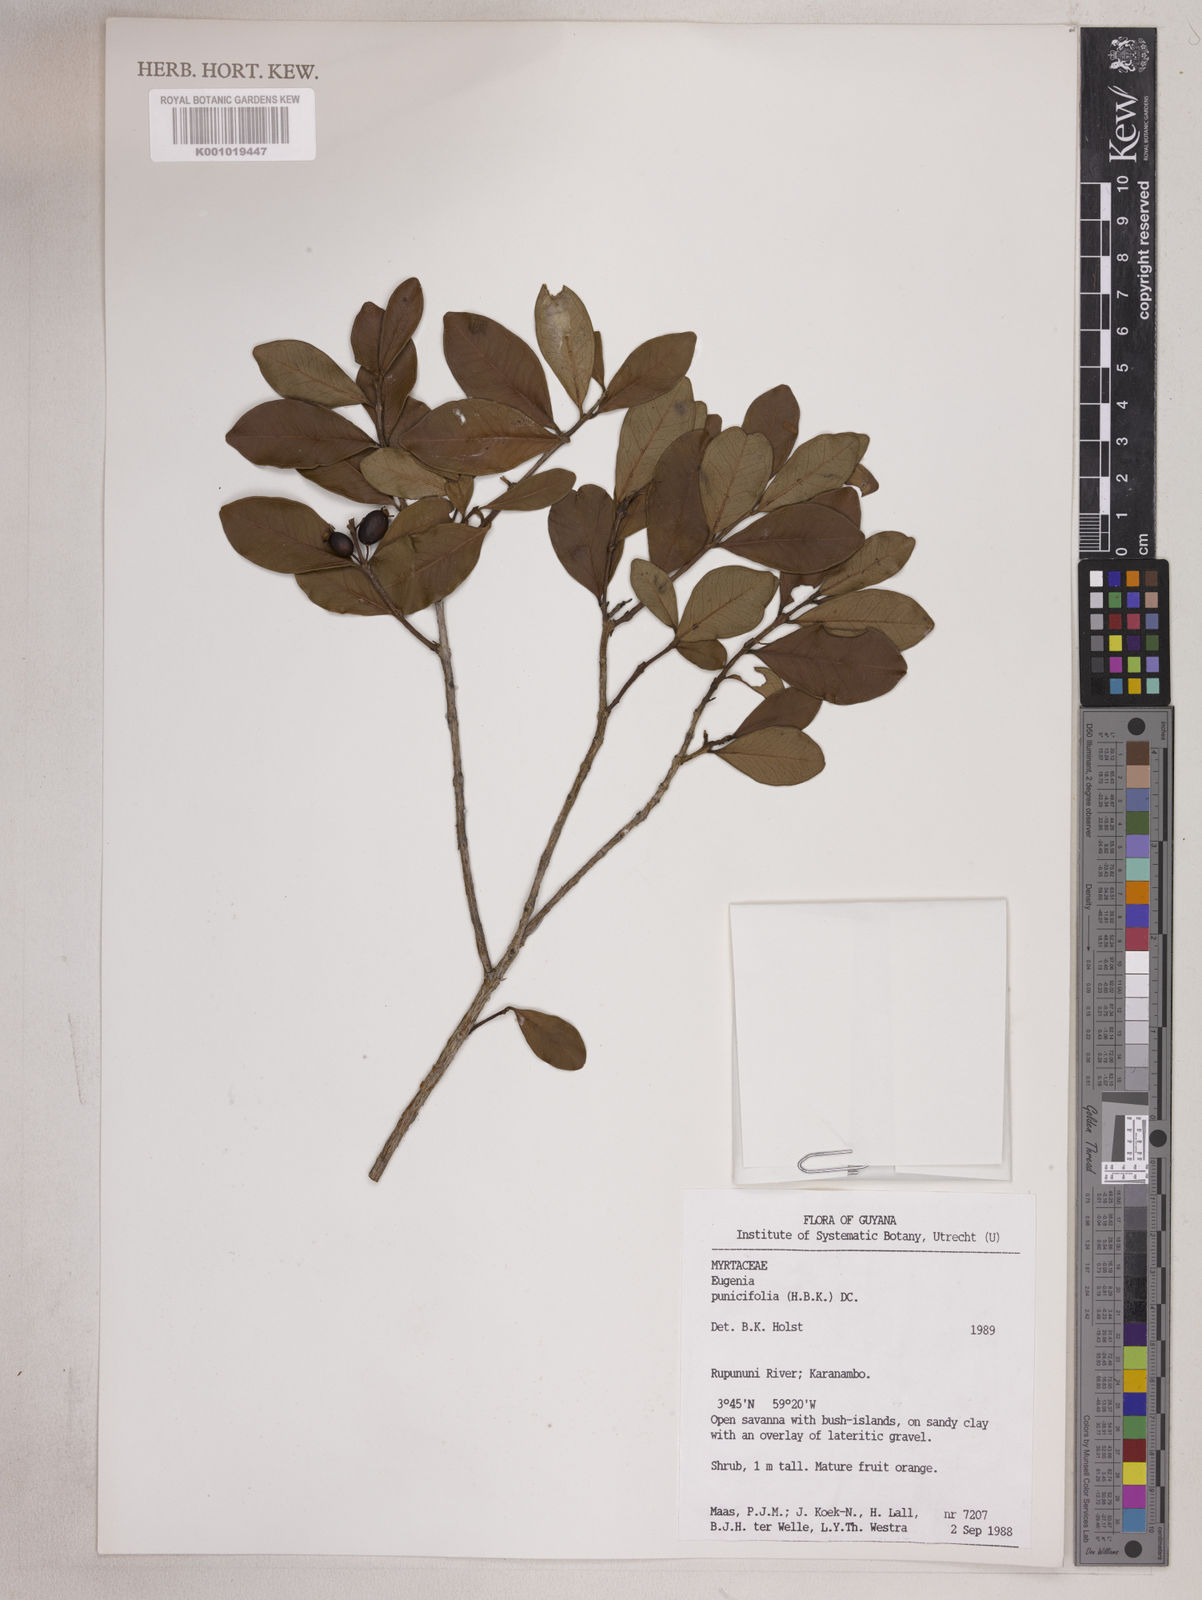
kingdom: Plantae
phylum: Tracheophyta
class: Magnoliopsida
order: Myrtales
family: Myrtaceae
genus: Eugenia
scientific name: Eugenia punicifolia
